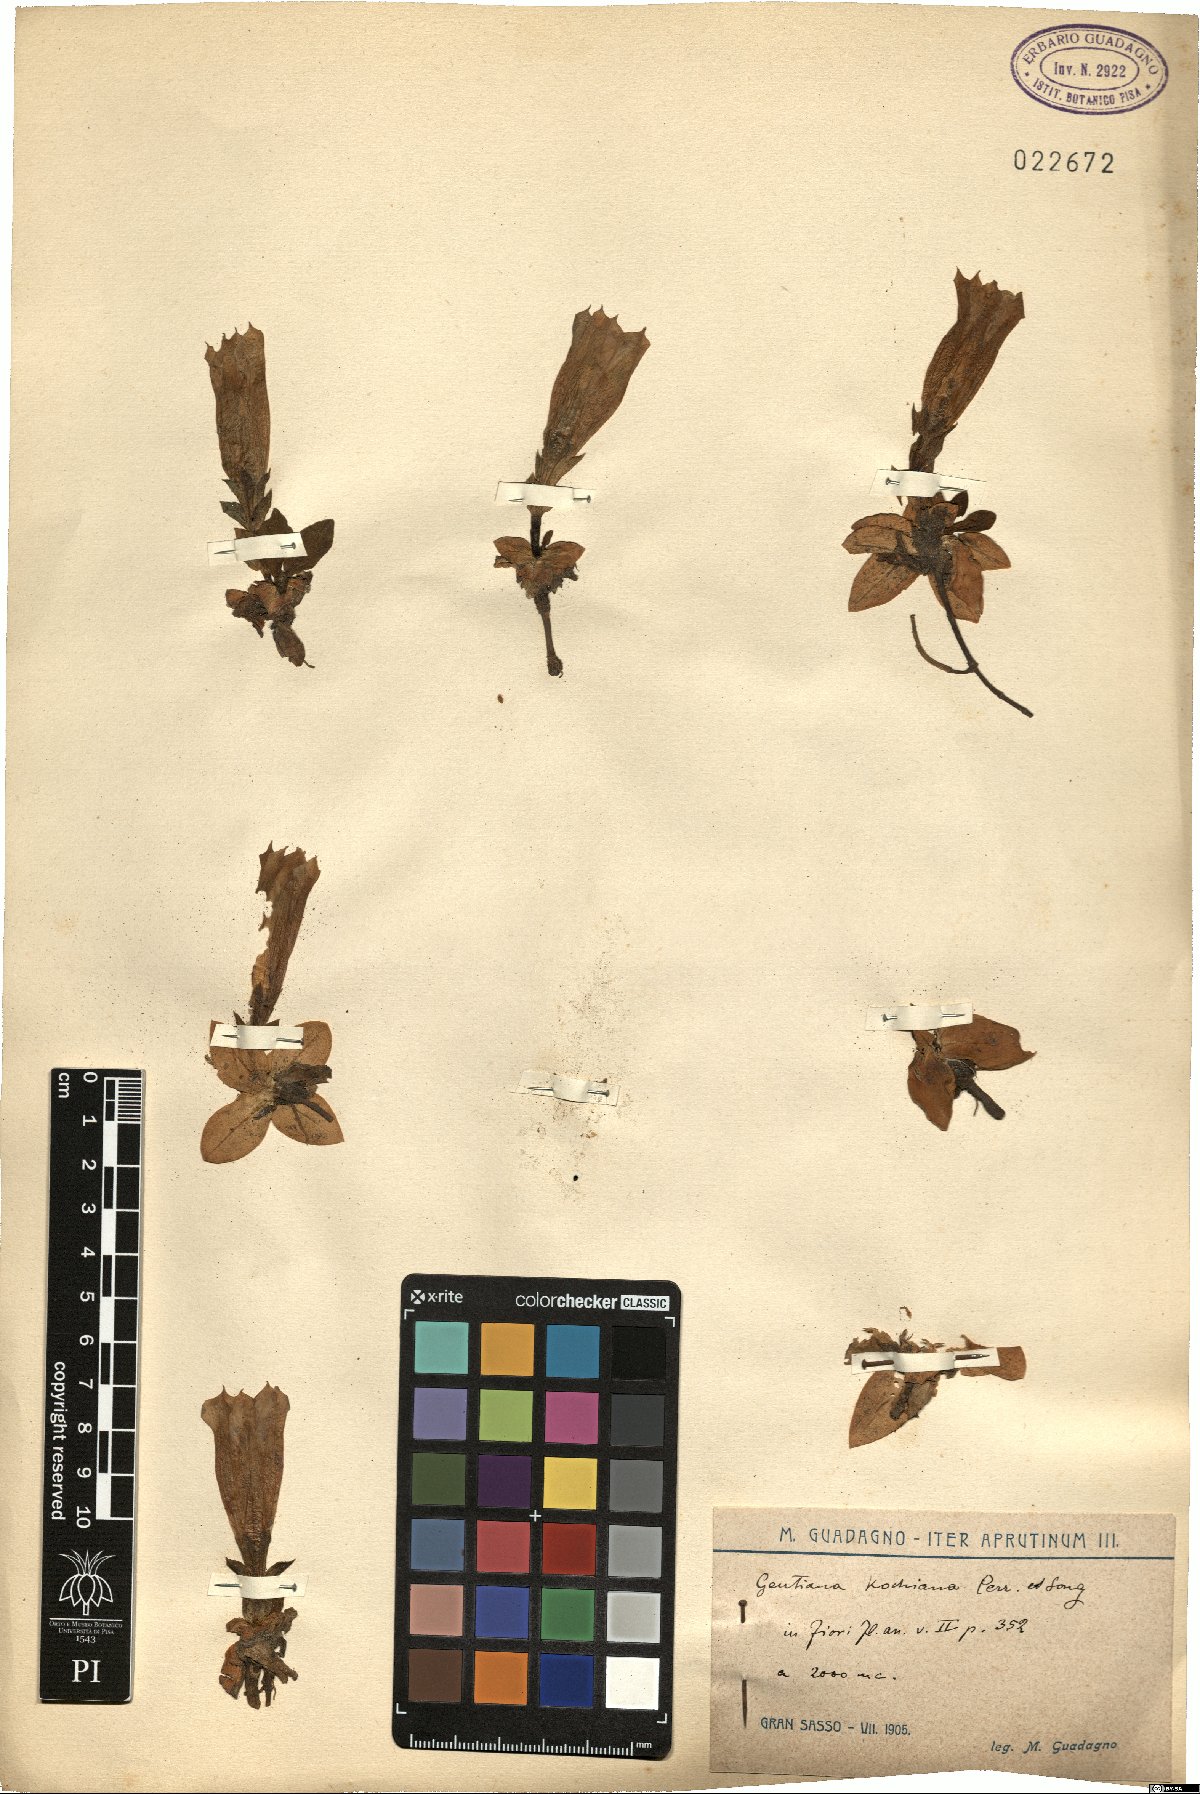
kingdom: Plantae
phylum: Tracheophyta
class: Magnoliopsida
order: Gentianales
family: Gentianaceae
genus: Gentiana
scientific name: Gentiana acaulis
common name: Trumpet gentian
